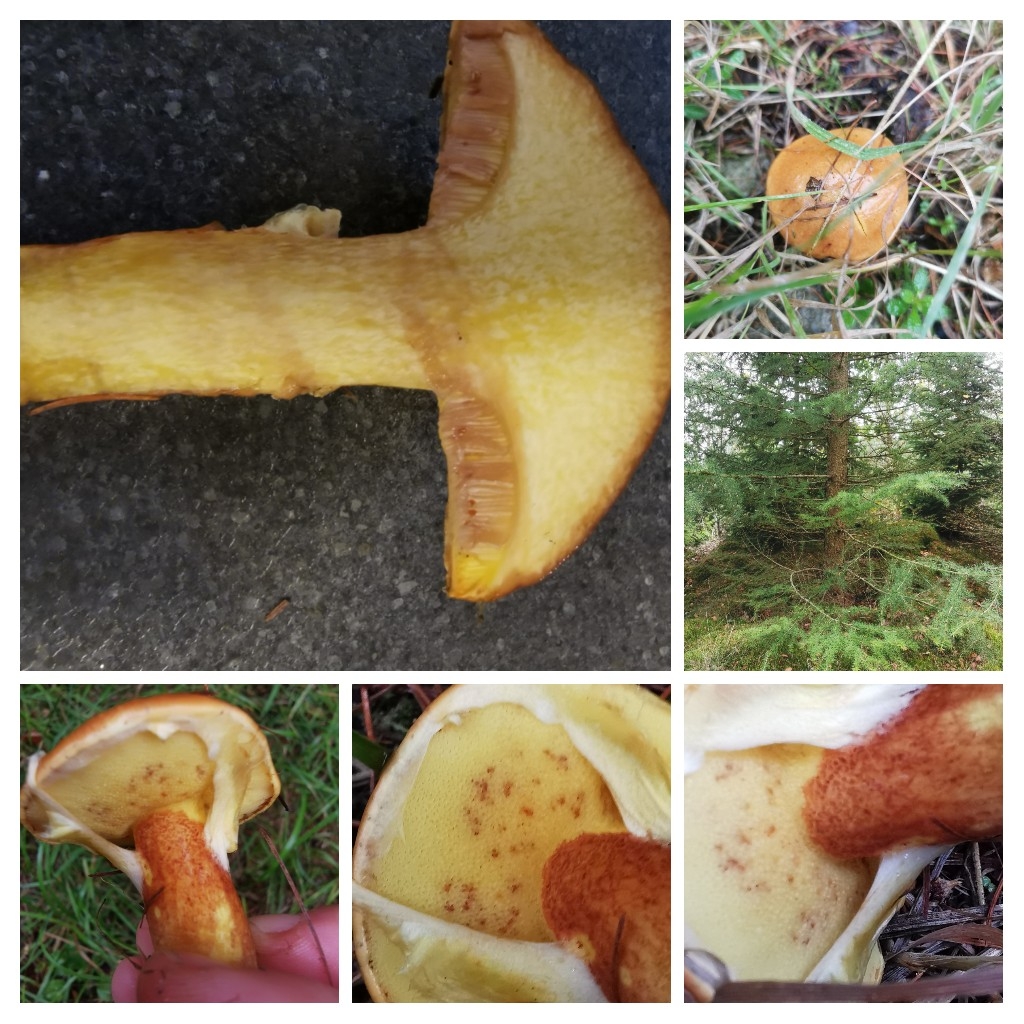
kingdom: Fungi
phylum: Basidiomycota
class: Agaricomycetes
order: Boletales
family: Suillaceae
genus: Suillus
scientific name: Suillus grevillei
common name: lærke-slimrørhat
